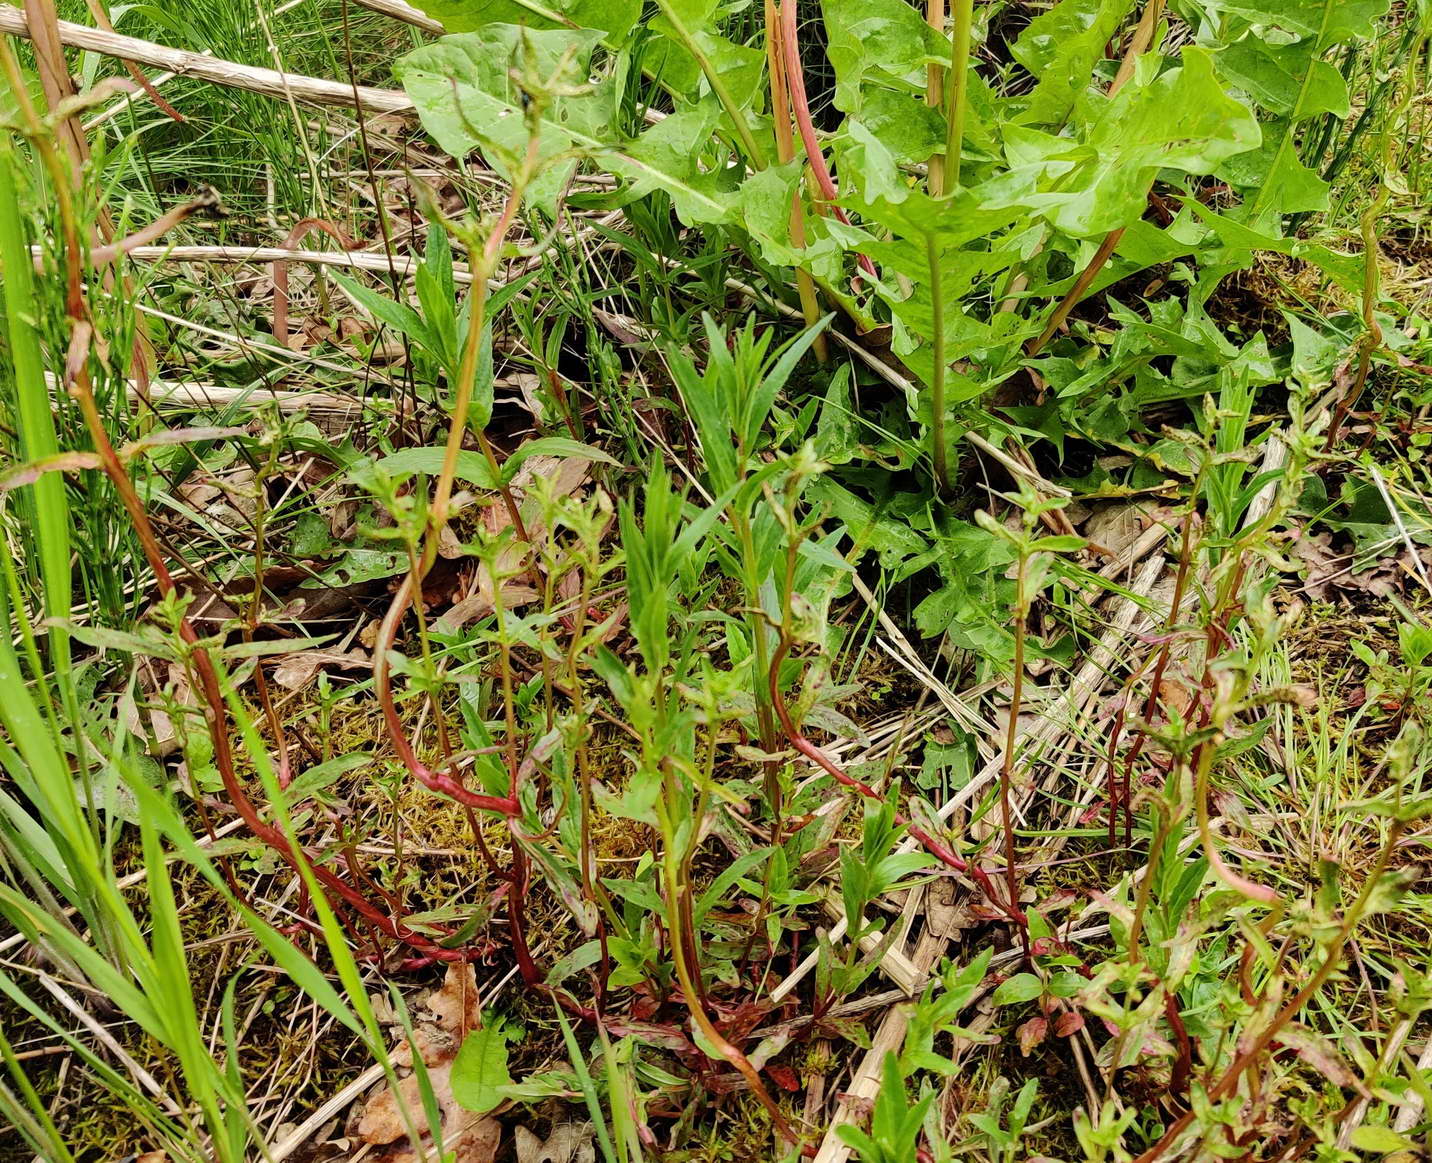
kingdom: Fungi
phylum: Basidiomycota
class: Pucciniomycetes
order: Pucciniales
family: Pucciniaceae
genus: Puccinia
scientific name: Puccinia epilobii
